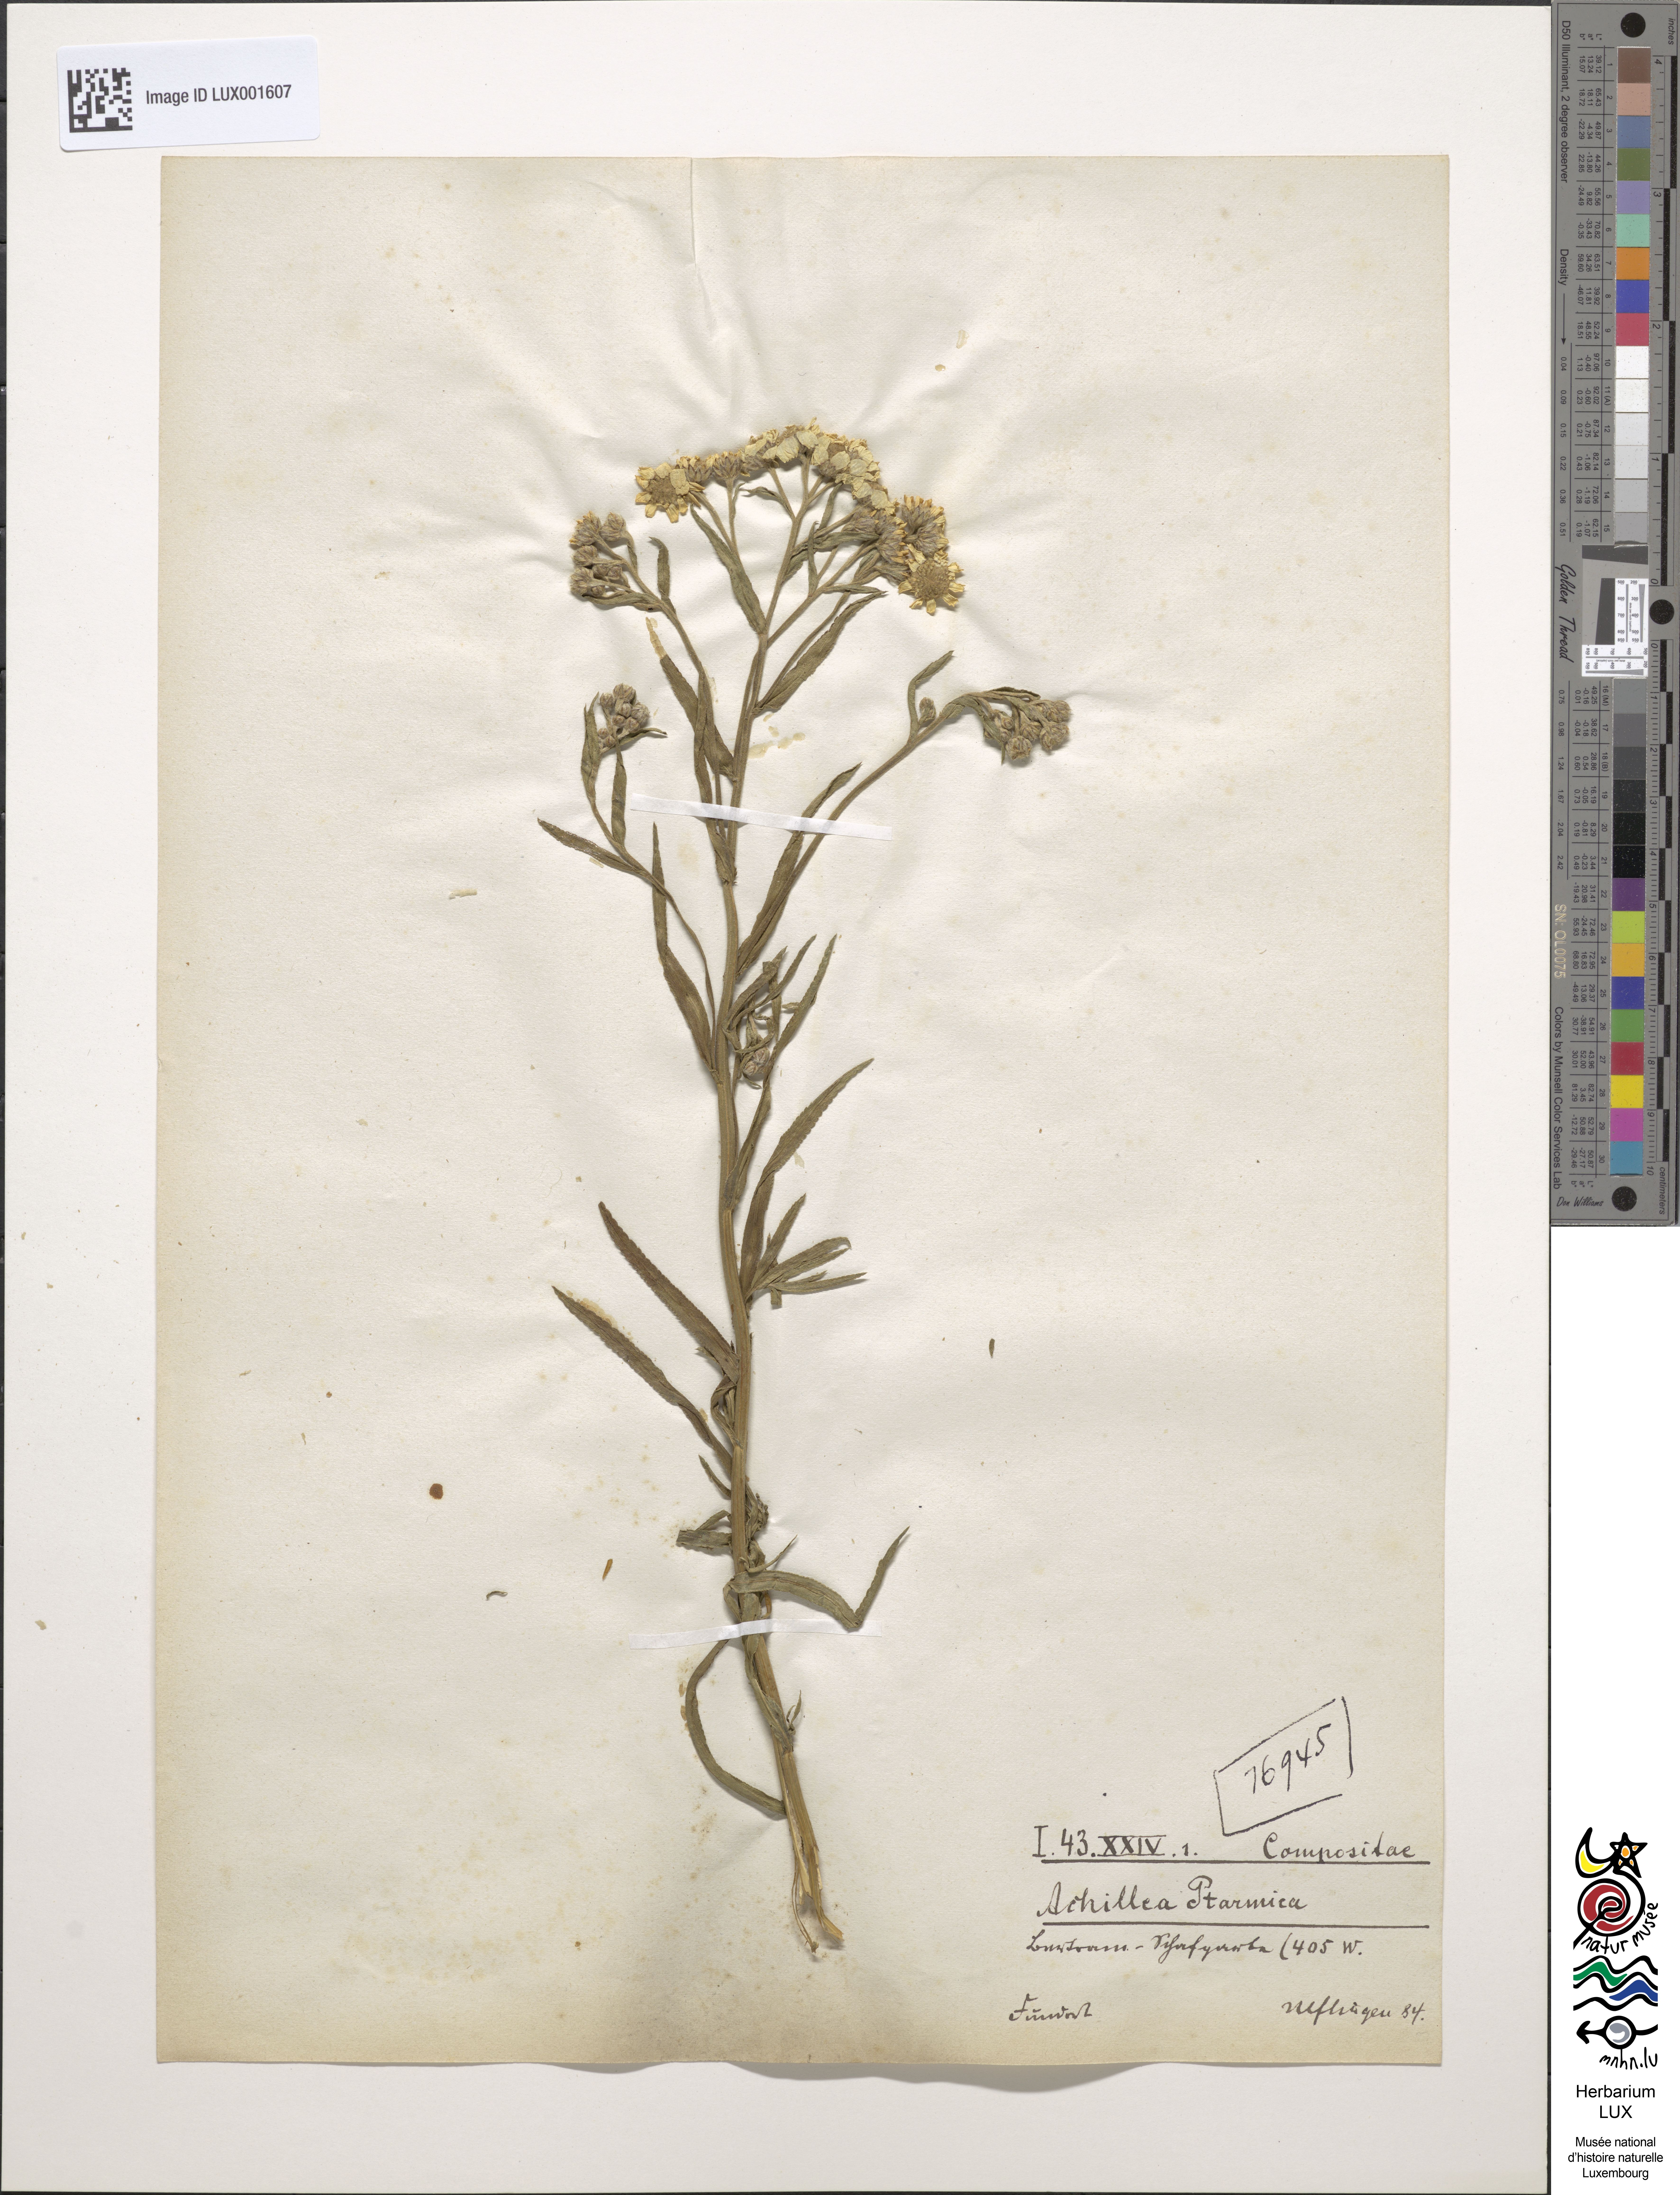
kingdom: Plantae
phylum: Tracheophyta
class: Magnoliopsida
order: Asterales
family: Asteraceae
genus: Achillea
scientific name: Achillea ptarmica
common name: Sneezeweed
